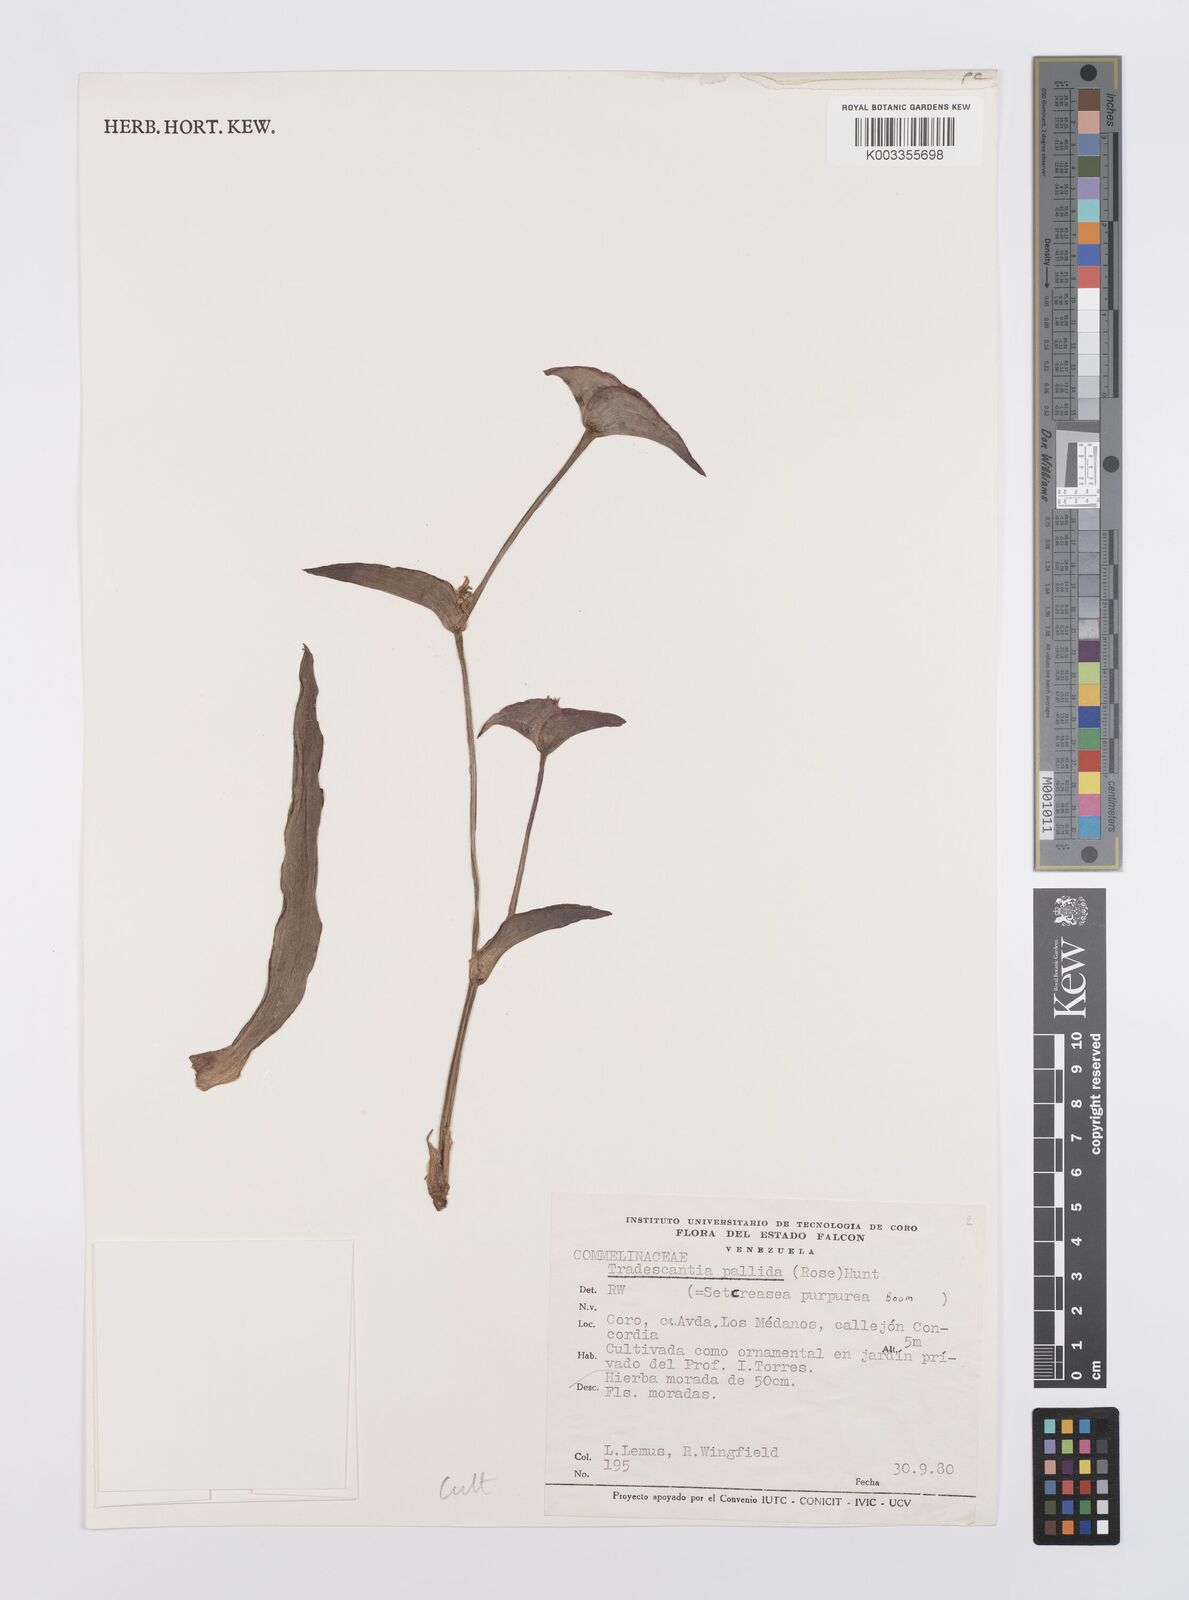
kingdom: Plantae
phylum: Tracheophyta
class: Liliopsida
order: Commelinales
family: Commelinaceae
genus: Tradescantia
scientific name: Tradescantia pallida
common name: Purpleheart
